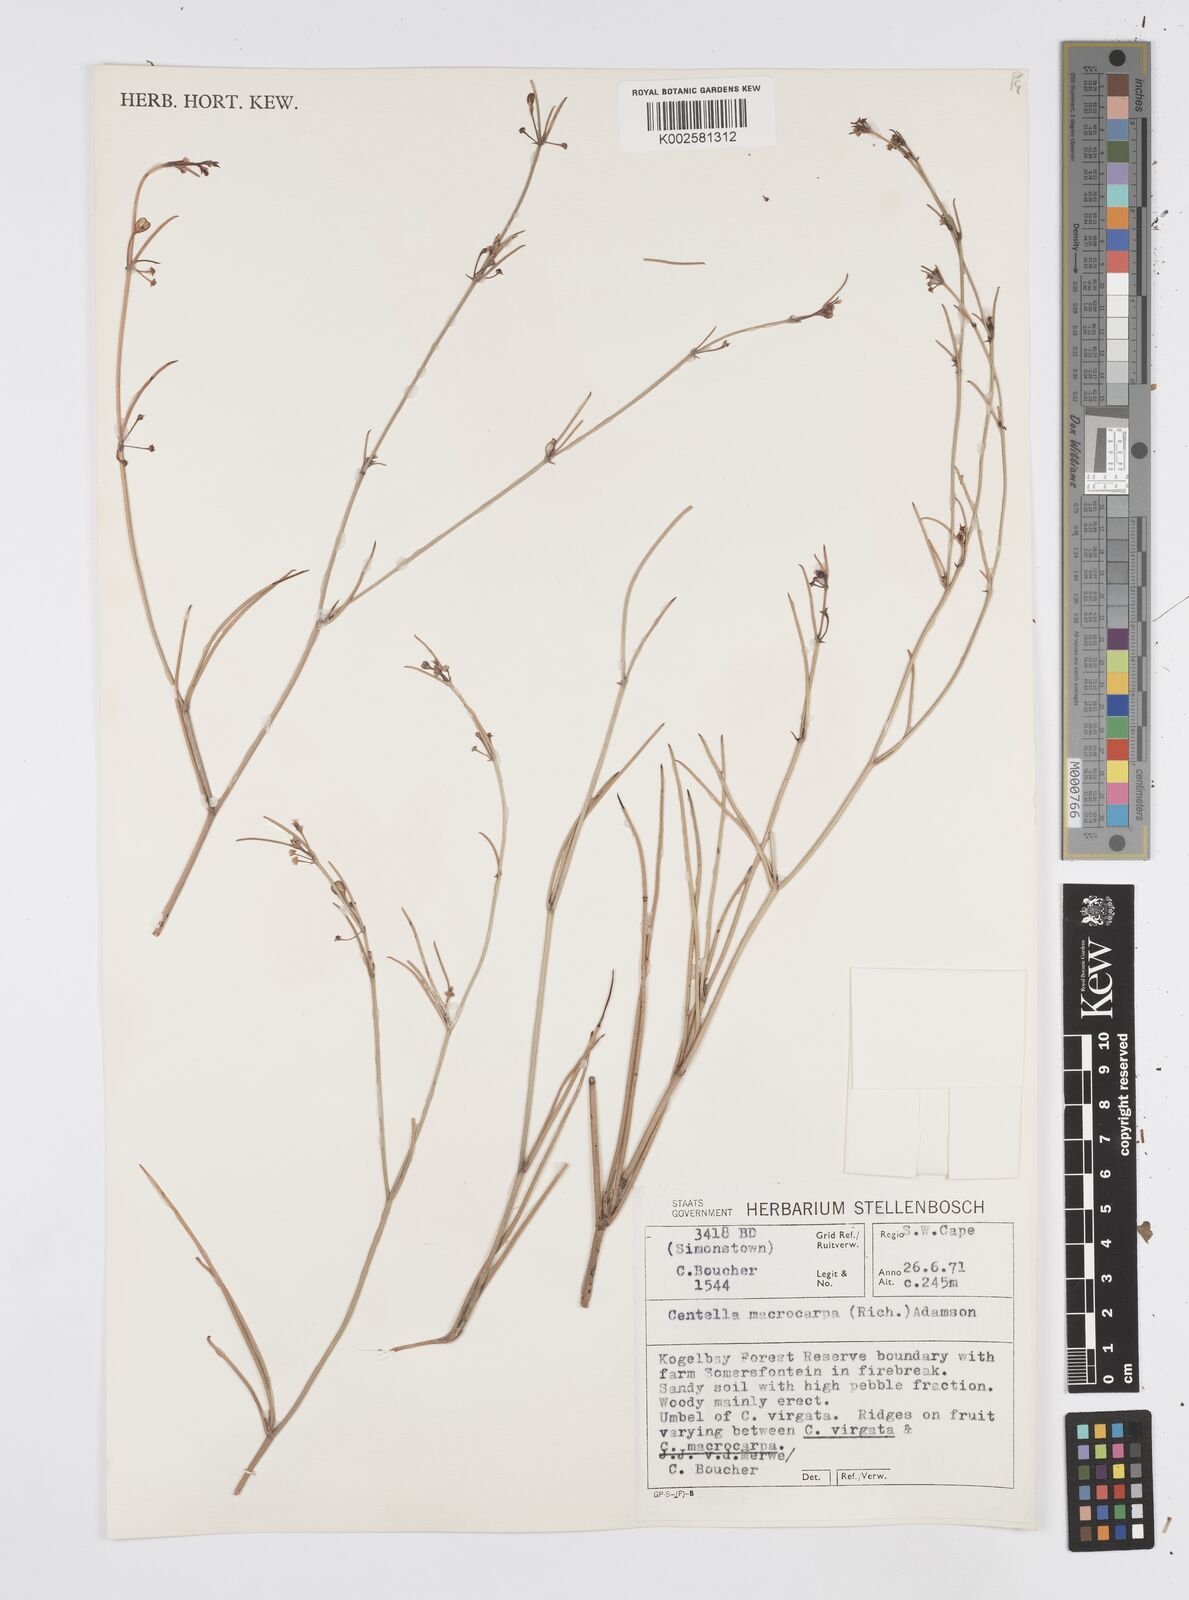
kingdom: Plantae
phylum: Tracheophyta
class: Magnoliopsida
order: Apiales
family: Apiaceae
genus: Centella
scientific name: Centella macrocarpa
